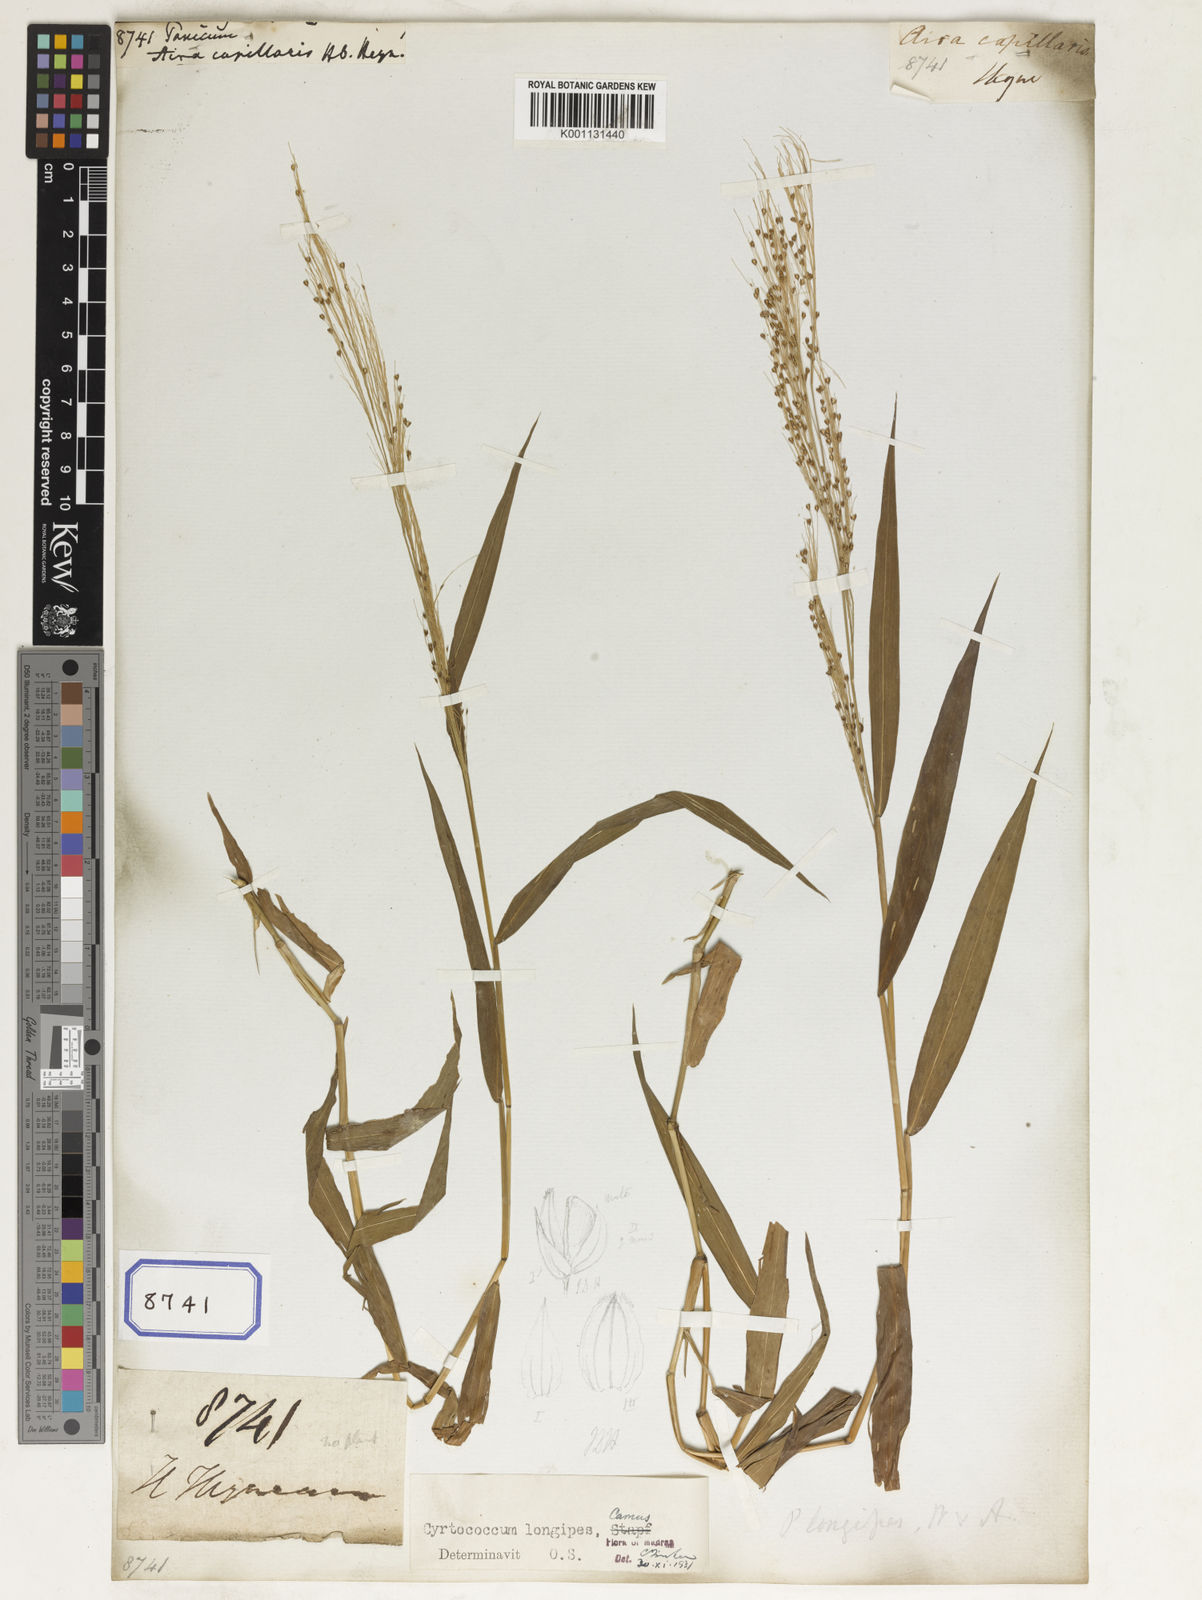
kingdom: Plantae
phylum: Tracheophyta
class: Liliopsida
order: Poales
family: Poaceae
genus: Panicum
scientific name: Panicum
